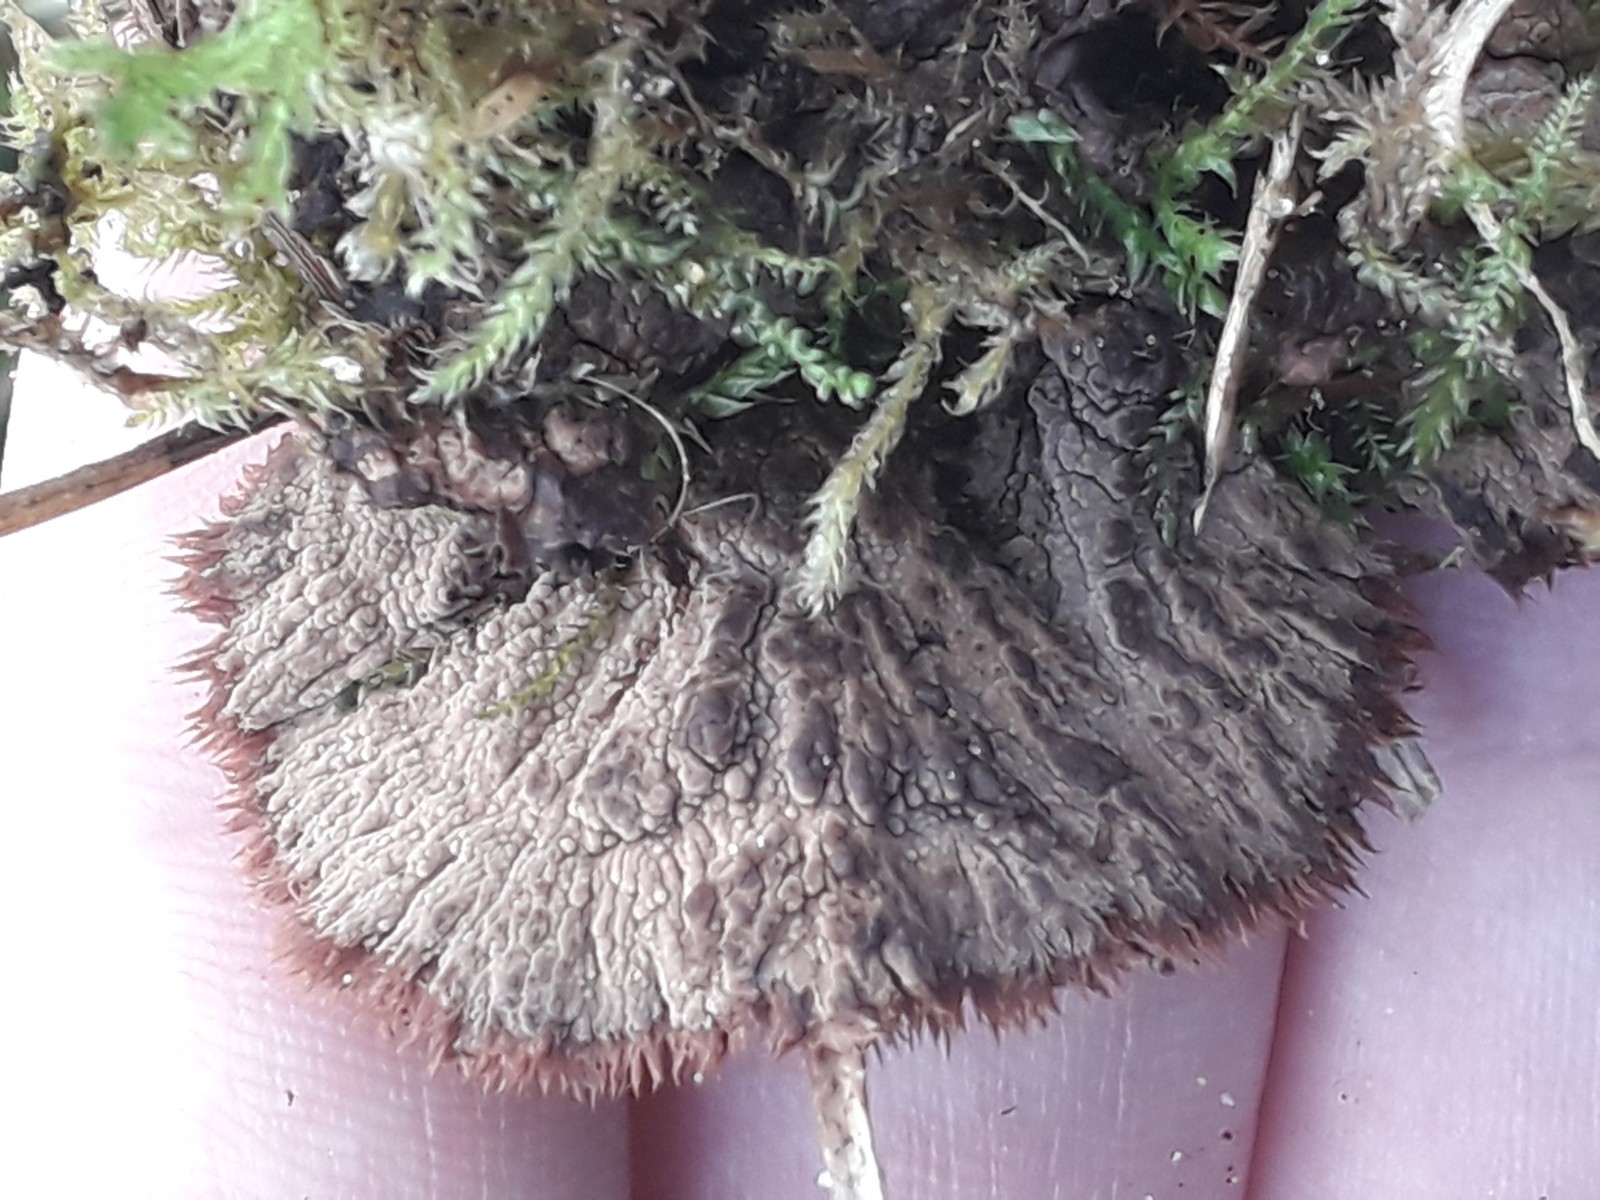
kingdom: Fungi
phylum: Basidiomycota
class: Agaricomycetes
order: Thelephorales
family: Thelephoraceae
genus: Thelephora
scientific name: Thelephora terrestris
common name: fliget frynsesvamp
